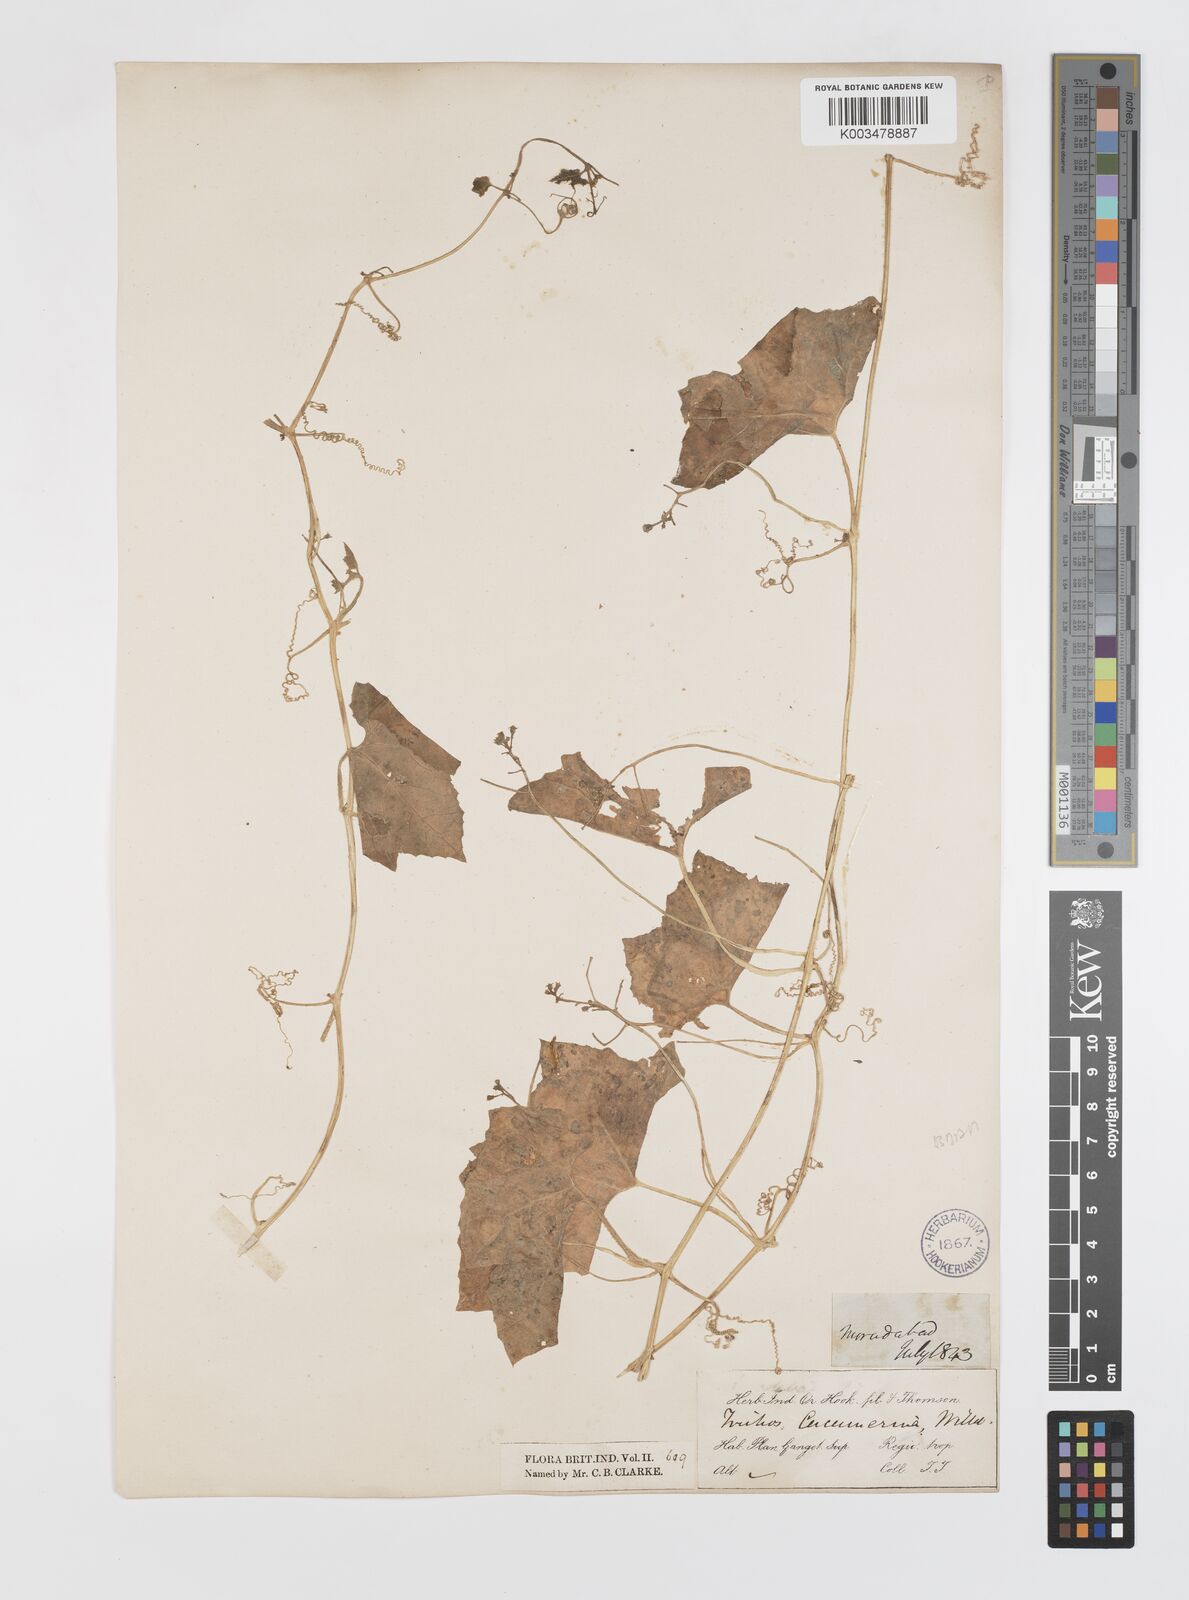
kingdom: Plantae
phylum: Tracheophyta
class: Magnoliopsida
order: Cucurbitales
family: Cucurbitaceae
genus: Trichosanthes
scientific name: Trichosanthes cucumerina
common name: Snakegourd
